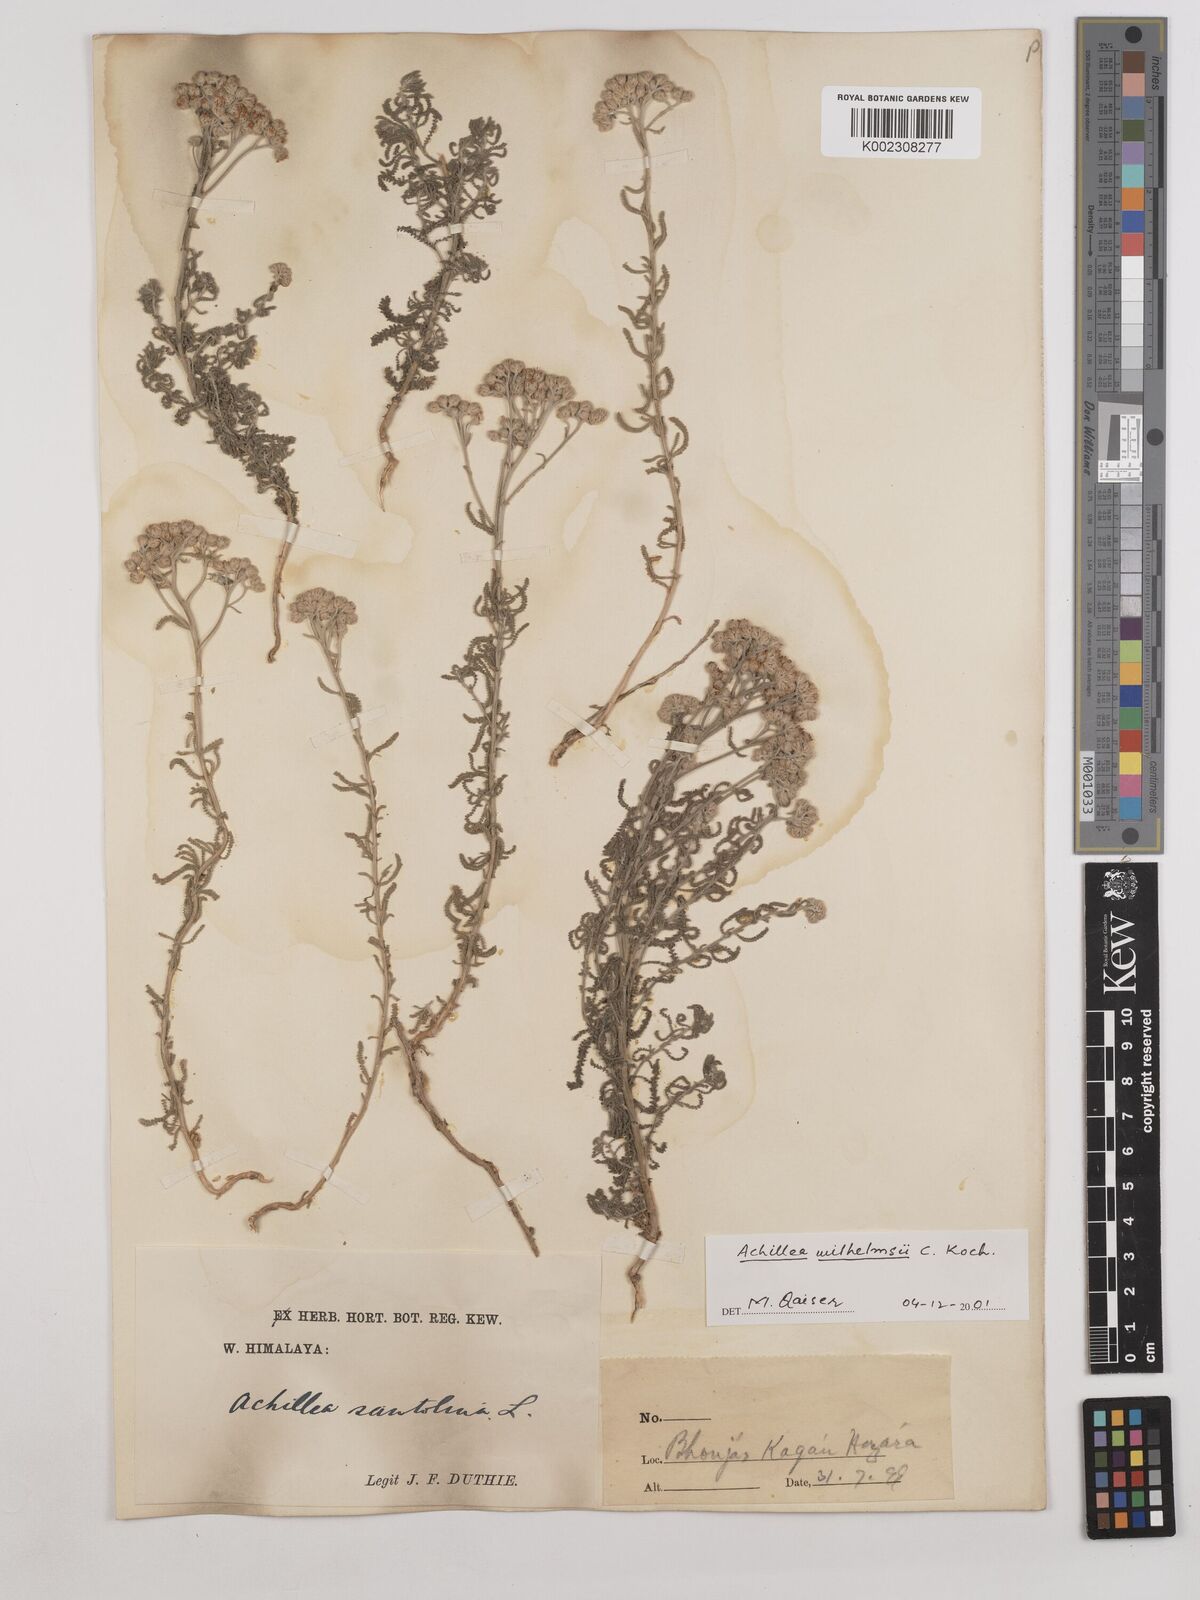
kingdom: Plantae
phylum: Tracheophyta
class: Magnoliopsida
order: Asterales
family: Asteraceae
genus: Achillea
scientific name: Achillea
